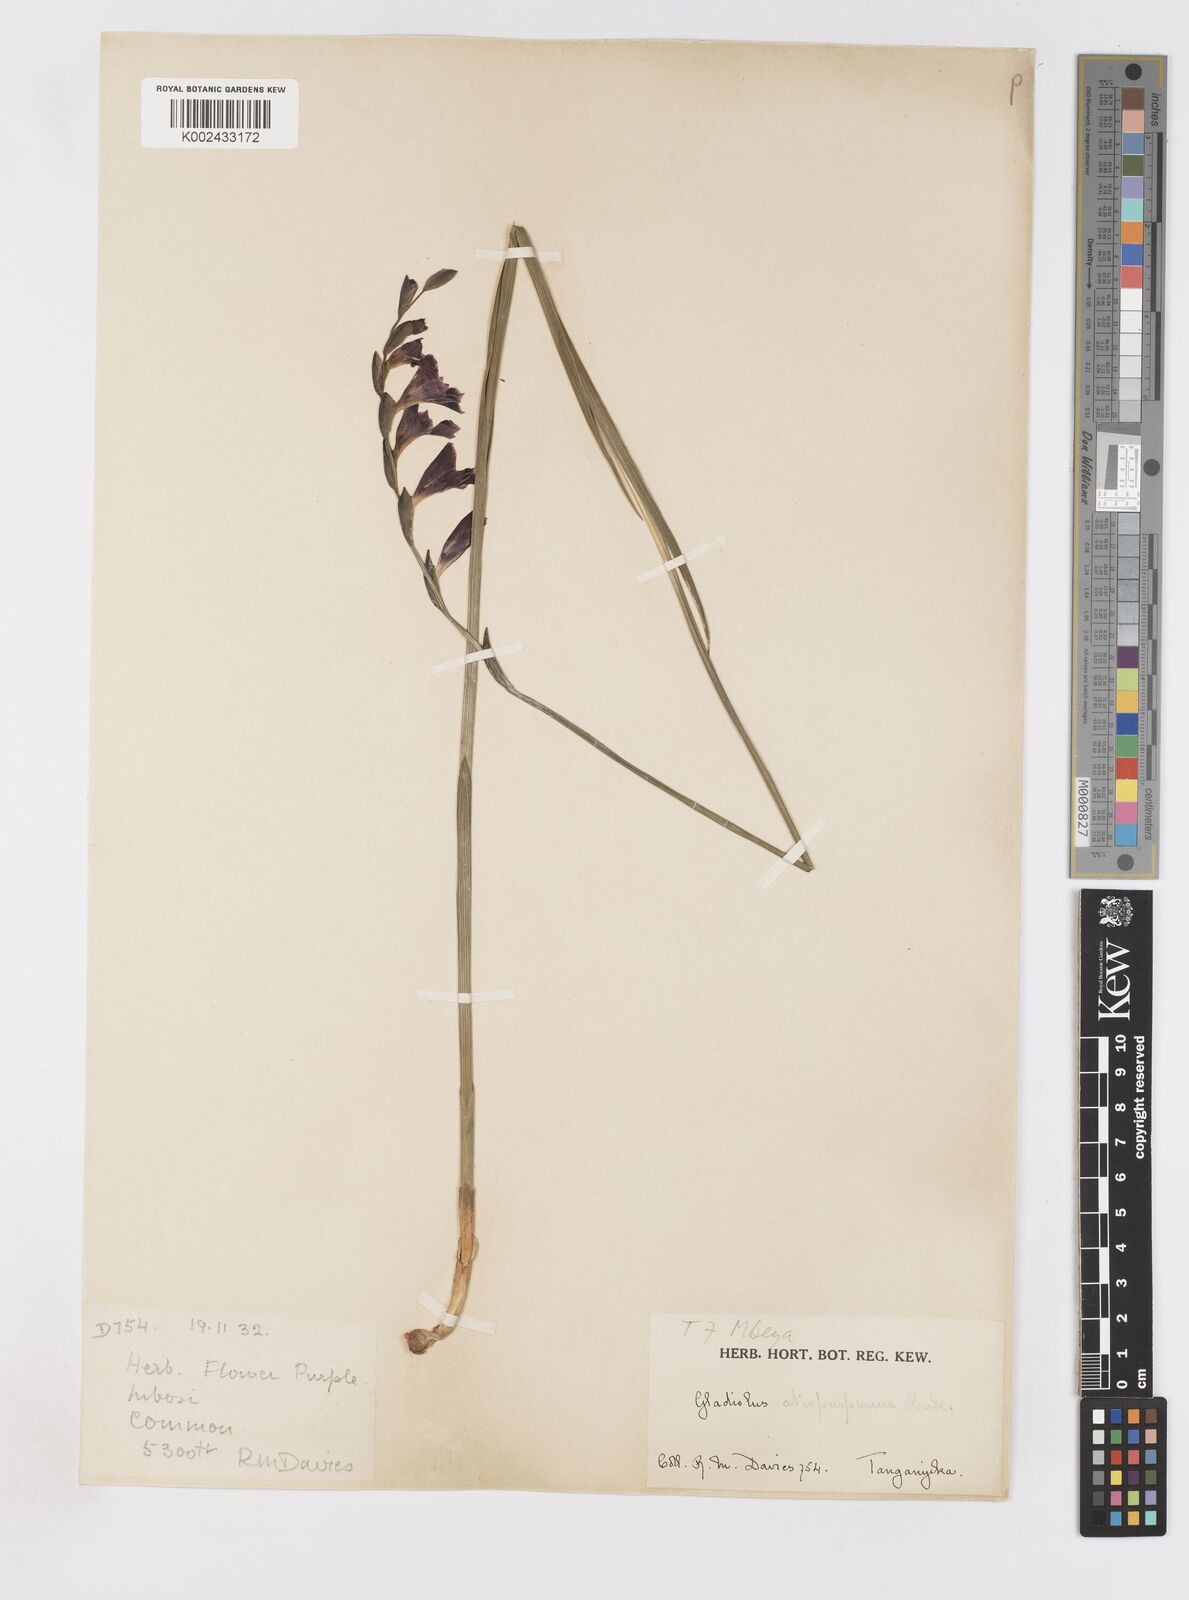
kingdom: Plantae
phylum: Tracheophyta
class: Liliopsida
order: Asparagales
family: Iridaceae
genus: Gladiolus
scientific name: Gladiolus atropurpureus
